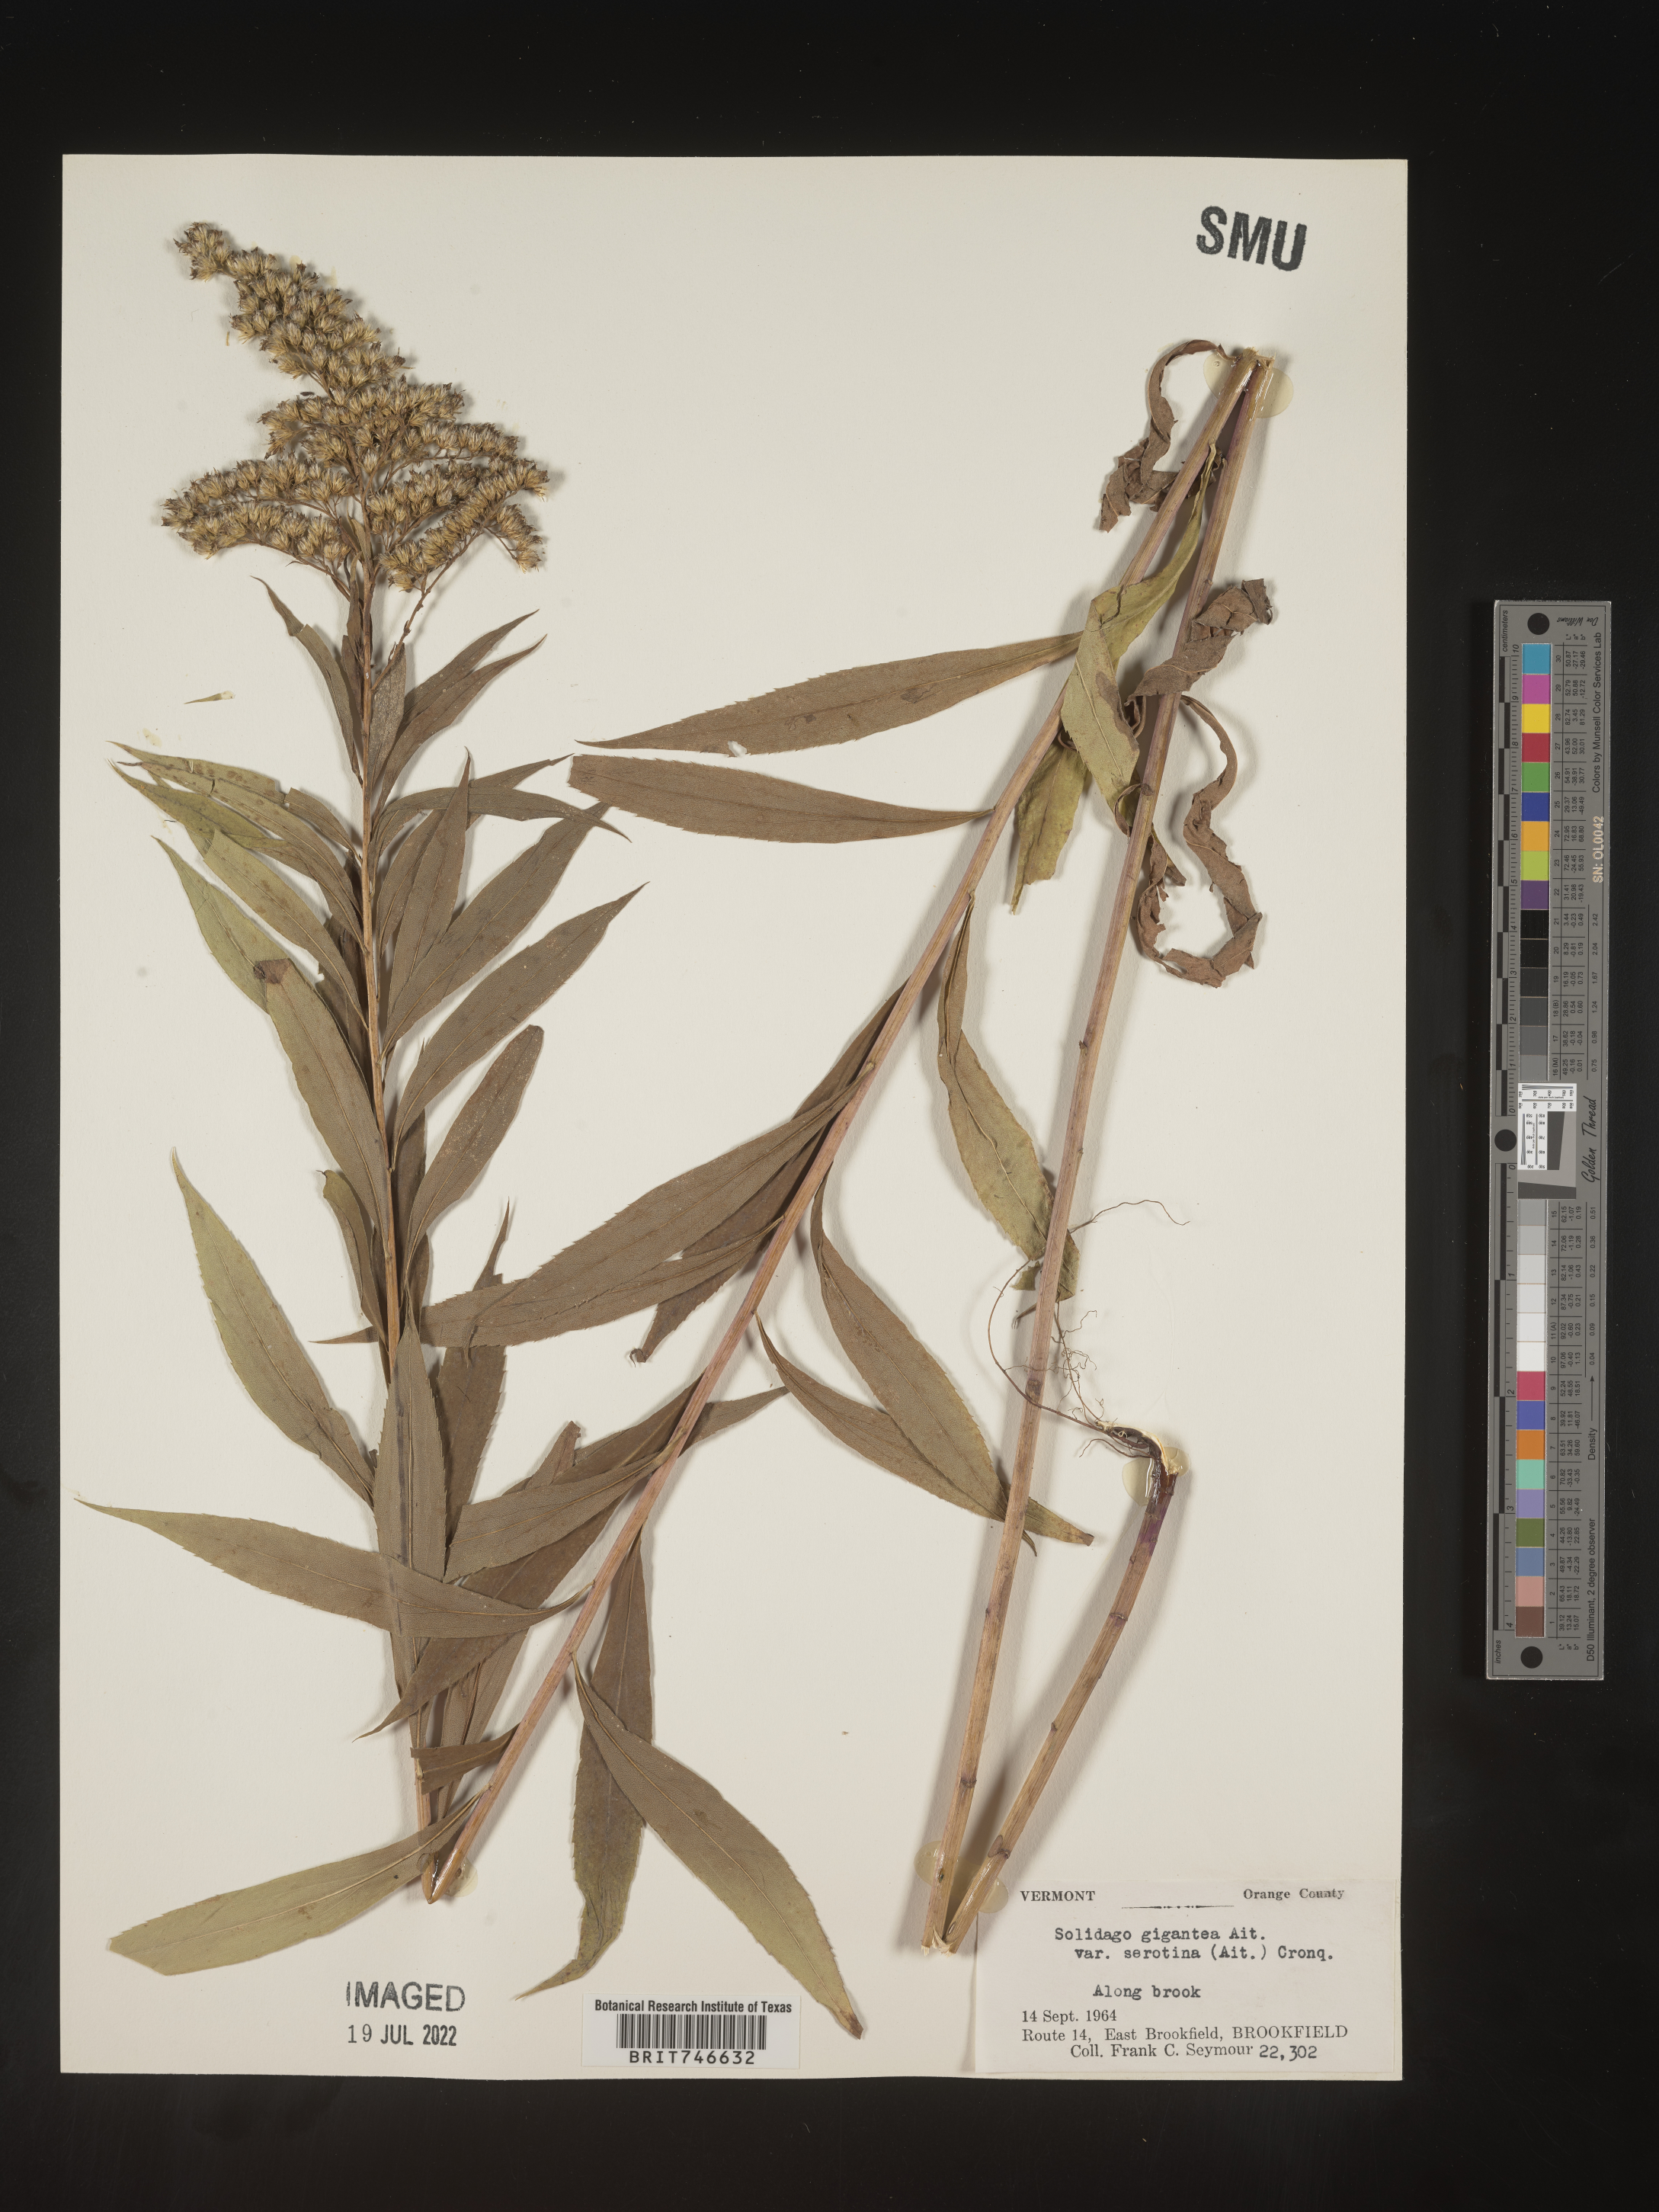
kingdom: Plantae
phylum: Tracheophyta
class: Magnoliopsida
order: Asterales
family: Asteraceae
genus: Solidago
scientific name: Solidago gigantea
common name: Giant goldenrod
